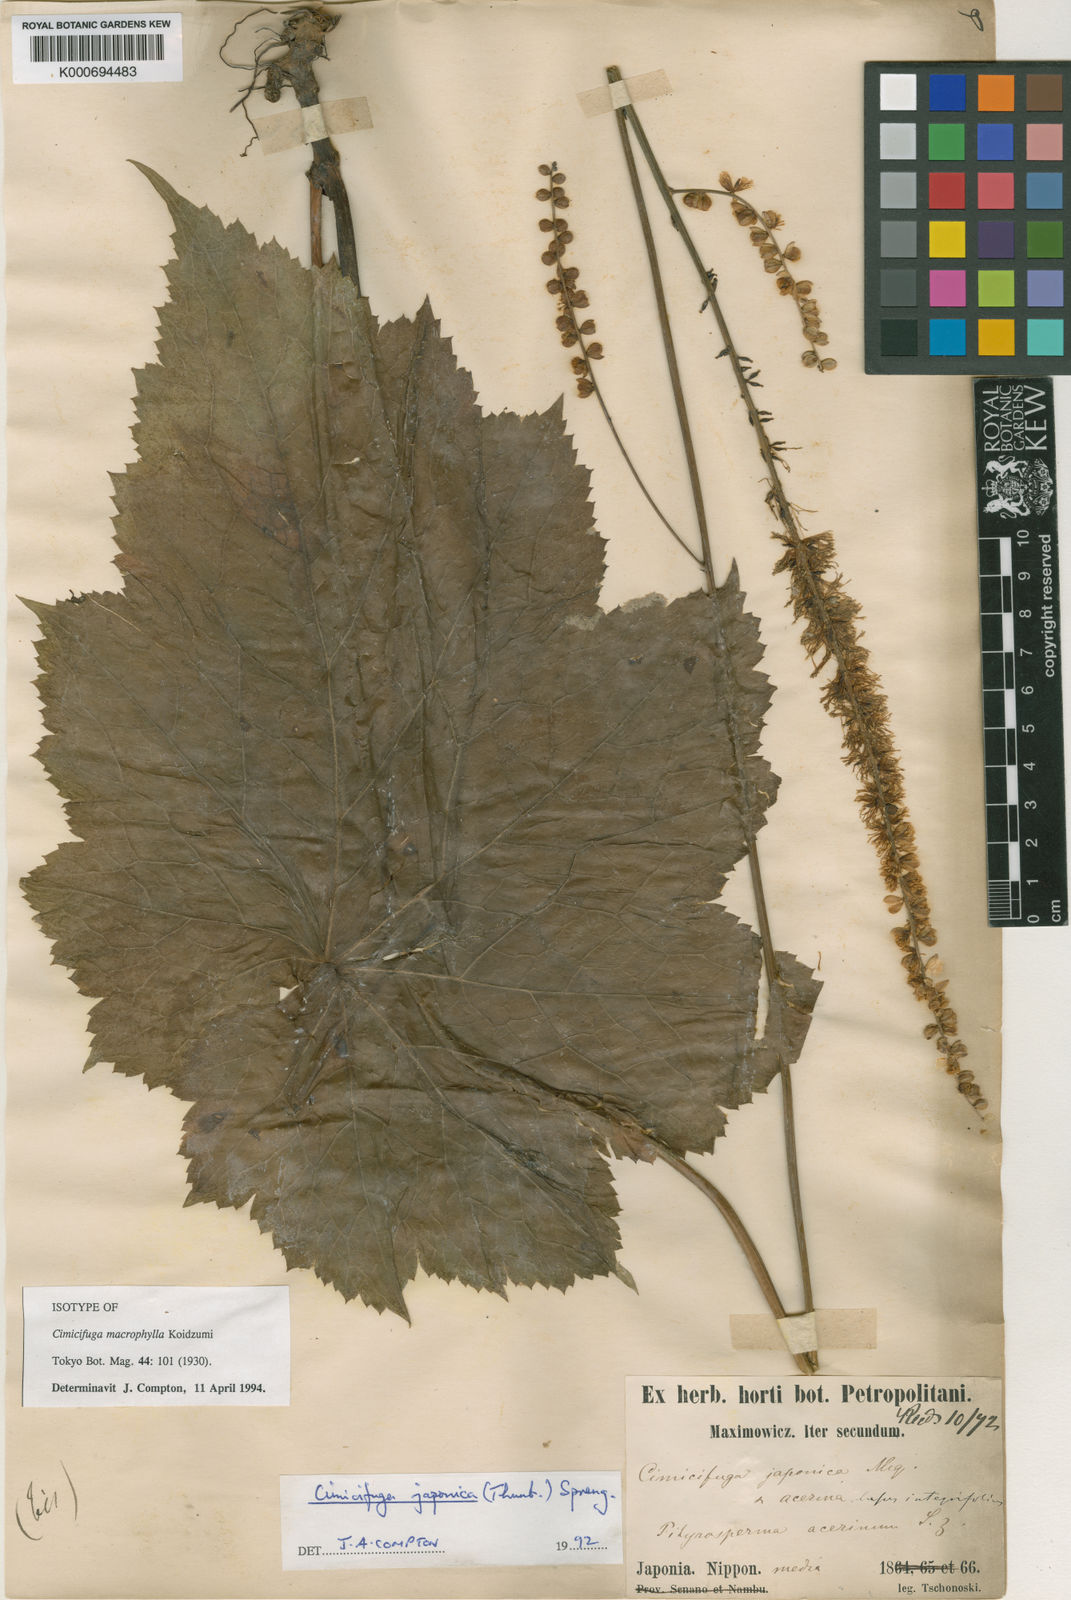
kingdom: Plantae
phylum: Tracheophyta
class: Magnoliopsida
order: Ranunculales
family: Ranunculaceae
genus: Actaea
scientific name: Actaea japonica
